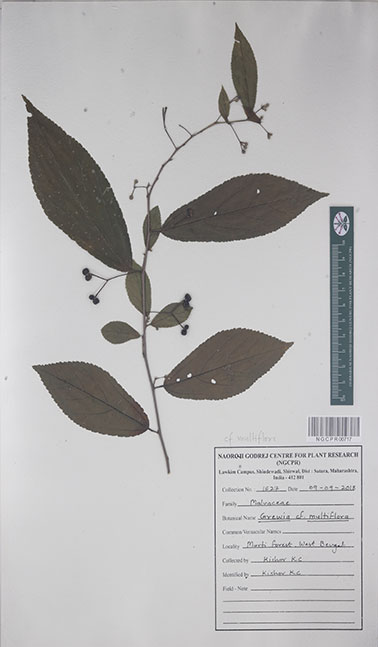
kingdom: Plantae
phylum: Tracheophyta
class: Magnoliopsida
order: Malvales
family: Malvaceae
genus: Grewia
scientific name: Grewia multiflora
